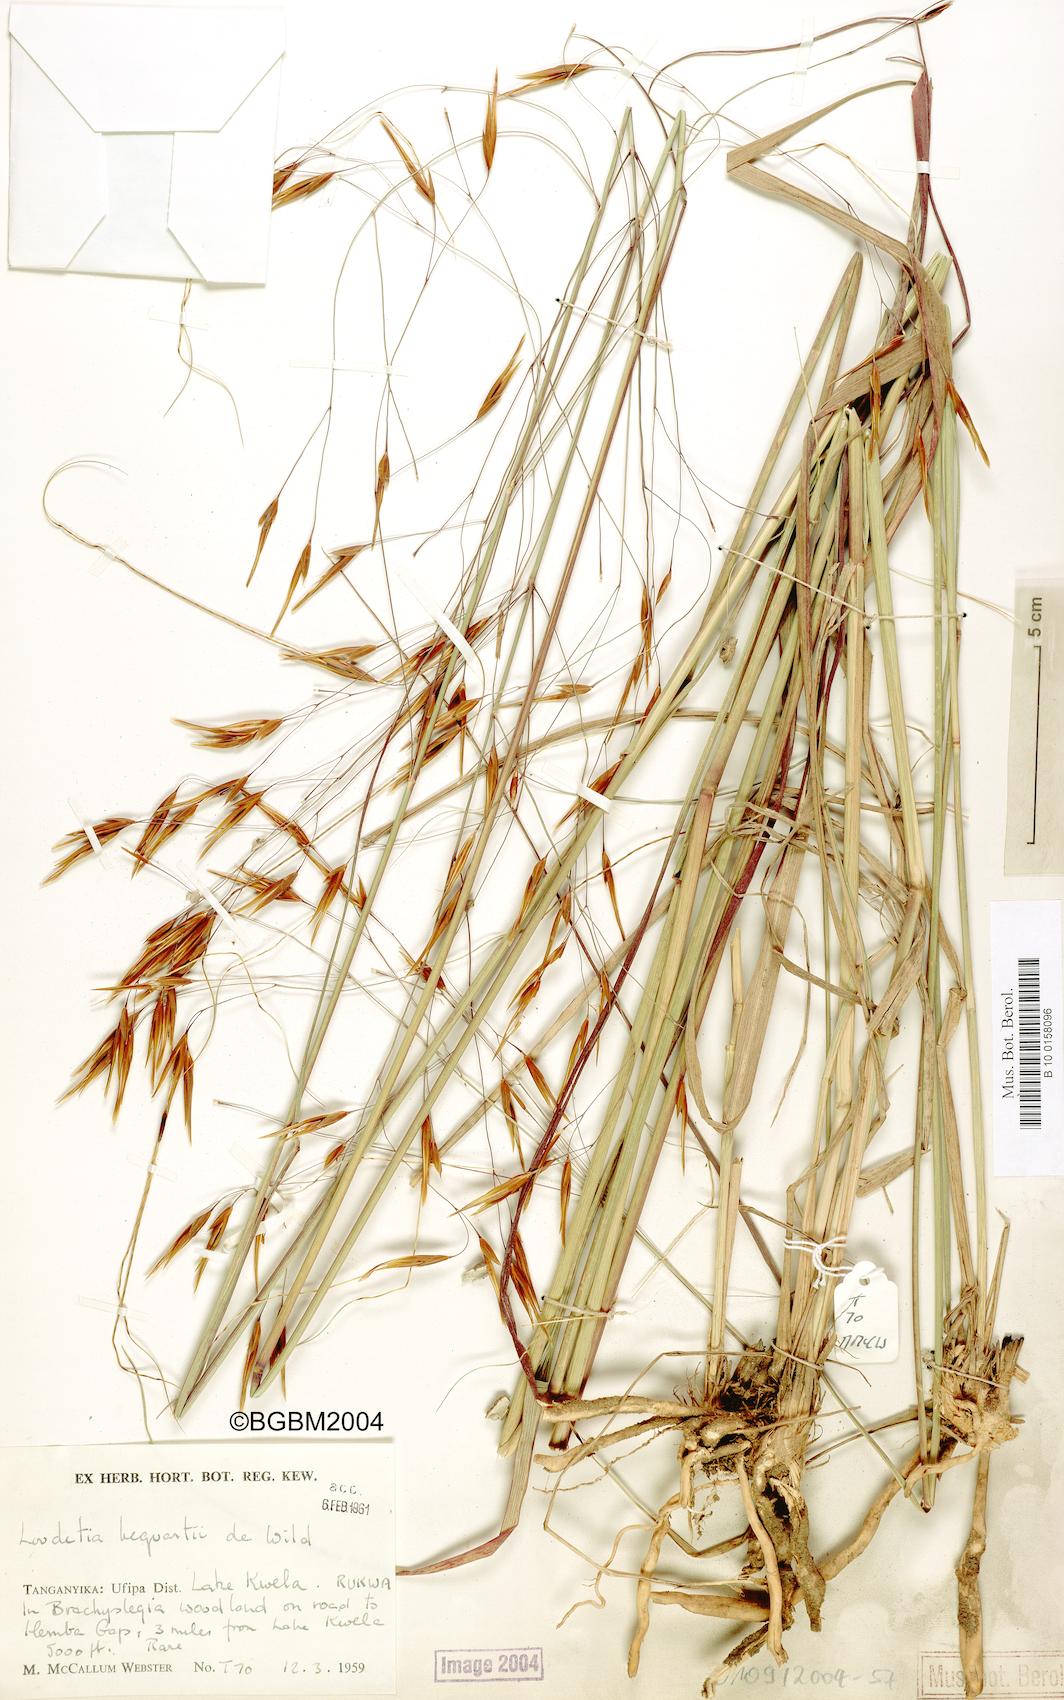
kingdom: Plantae
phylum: Tracheophyta
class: Liliopsida
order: Poales
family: Poaceae
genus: Tristachya
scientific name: Tristachya hubbardiana
